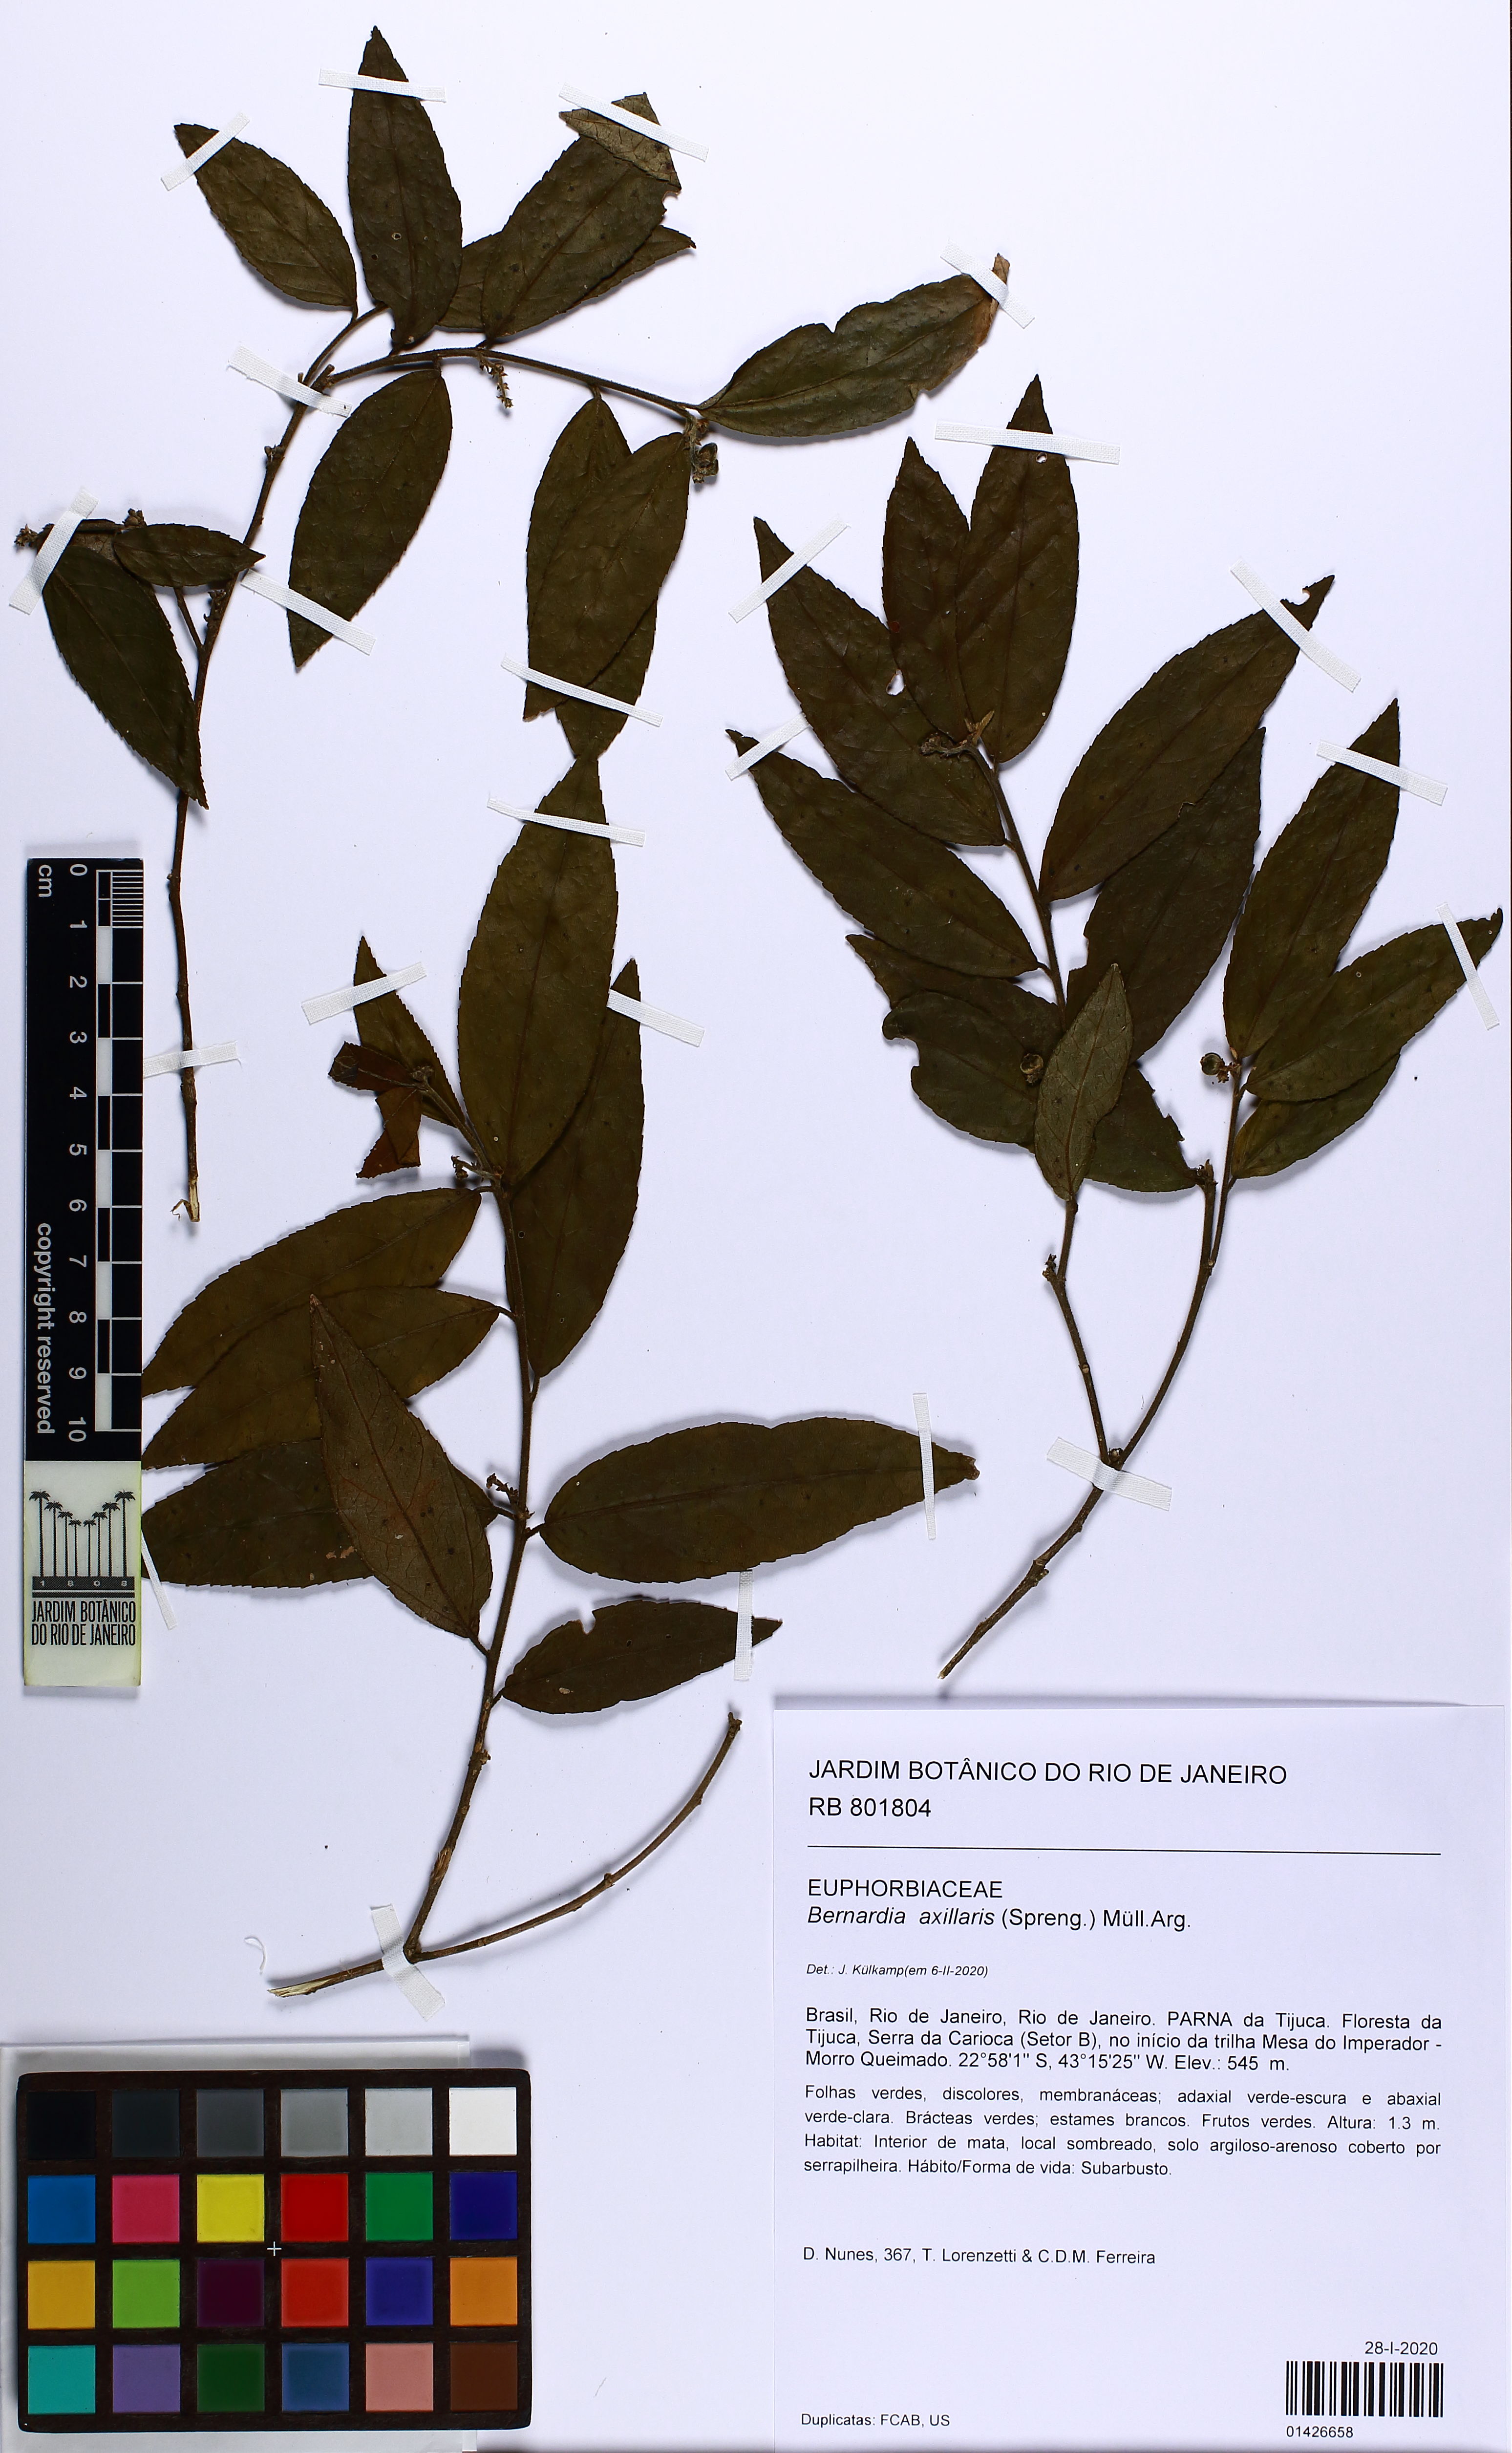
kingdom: Plantae
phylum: Tracheophyta
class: Magnoliopsida
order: Malpighiales
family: Euphorbiaceae
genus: Bernardia
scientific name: Bernardia axillaris
